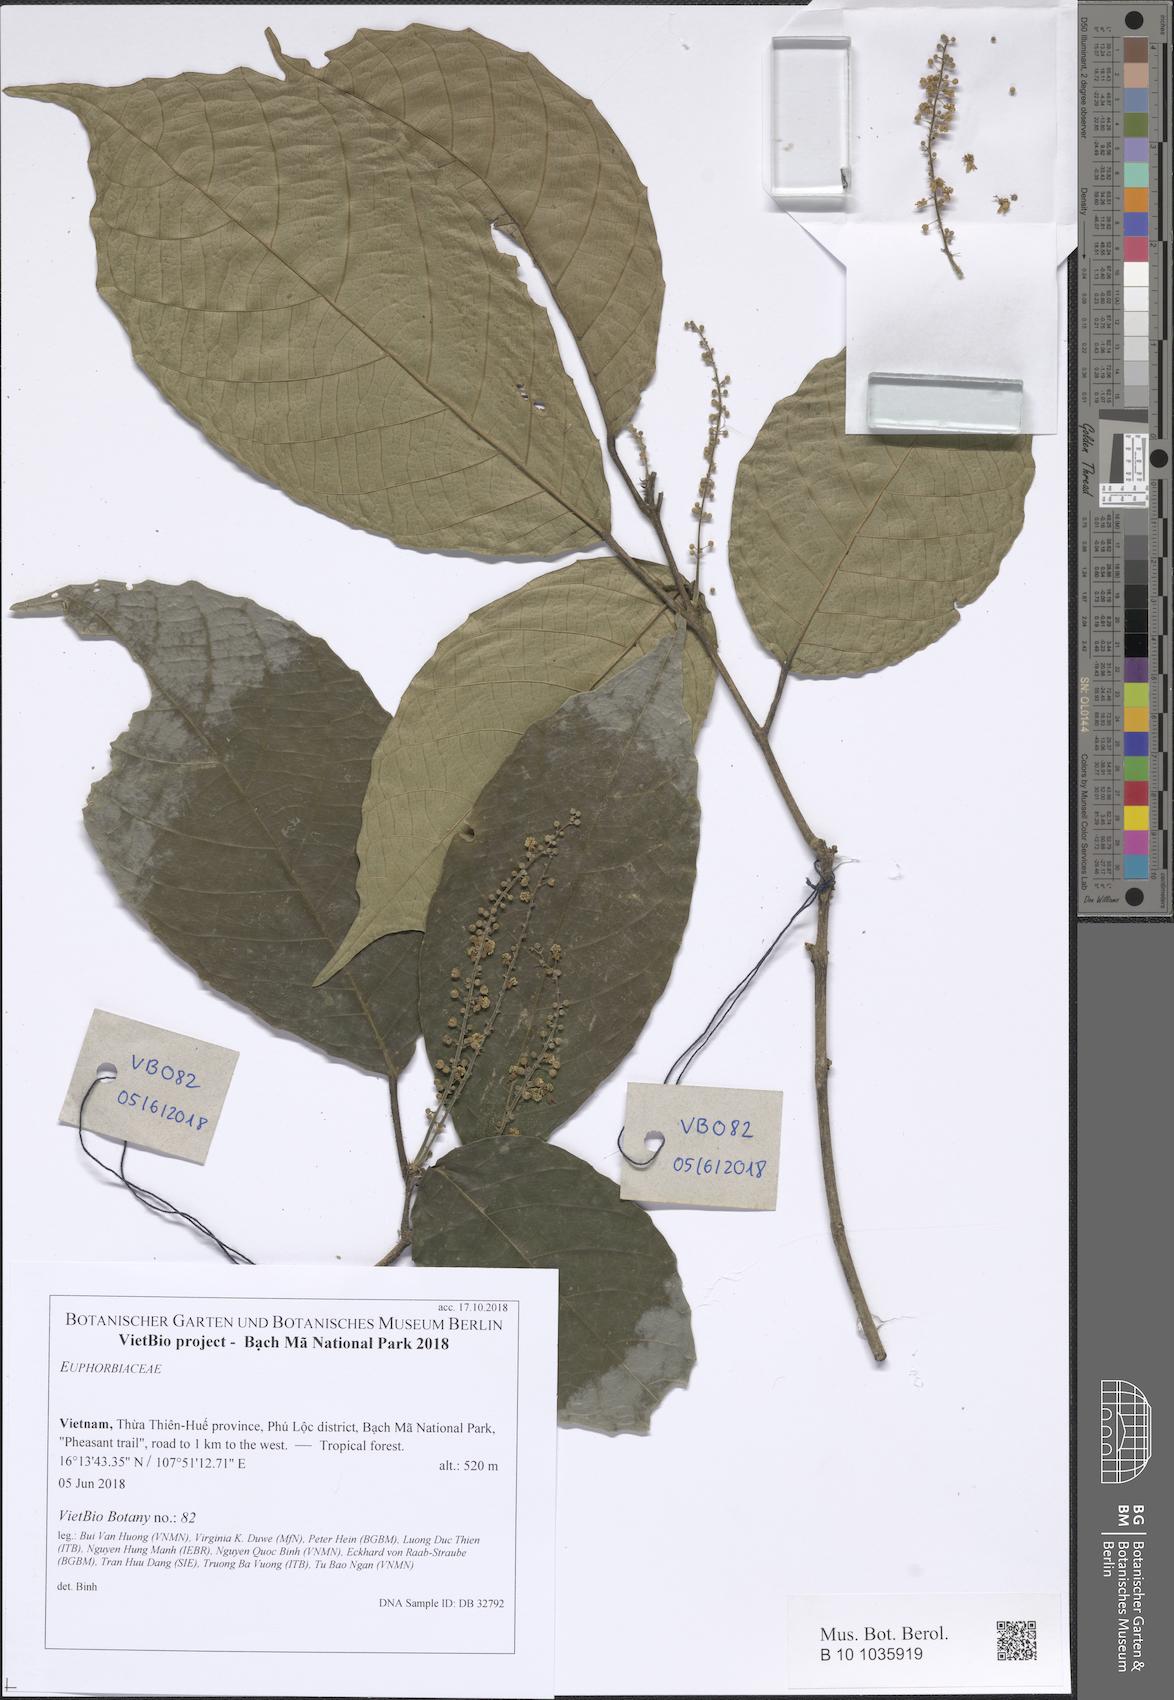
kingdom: Plantae
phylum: Tracheophyta
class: Magnoliopsida
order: Malpighiales
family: Euphorbiaceae
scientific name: Euphorbiaceae
